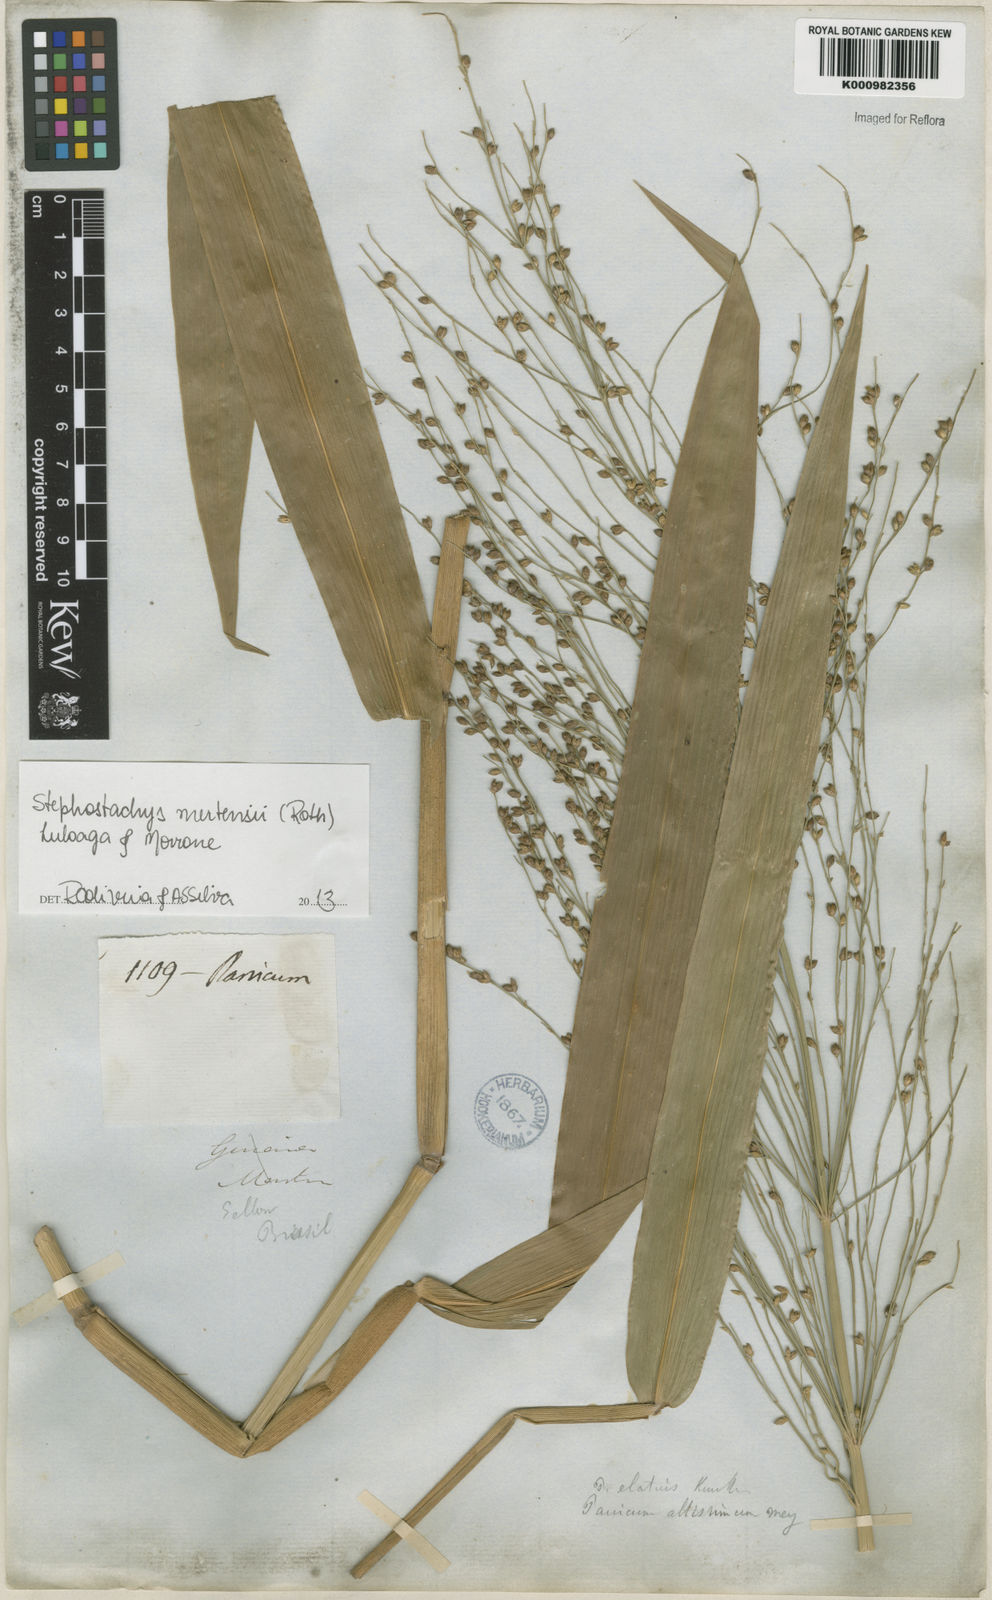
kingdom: Plantae
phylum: Tracheophyta
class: Liliopsida
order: Poales
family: Poaceae
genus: Stephostachys
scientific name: Stephostachys mertensii
